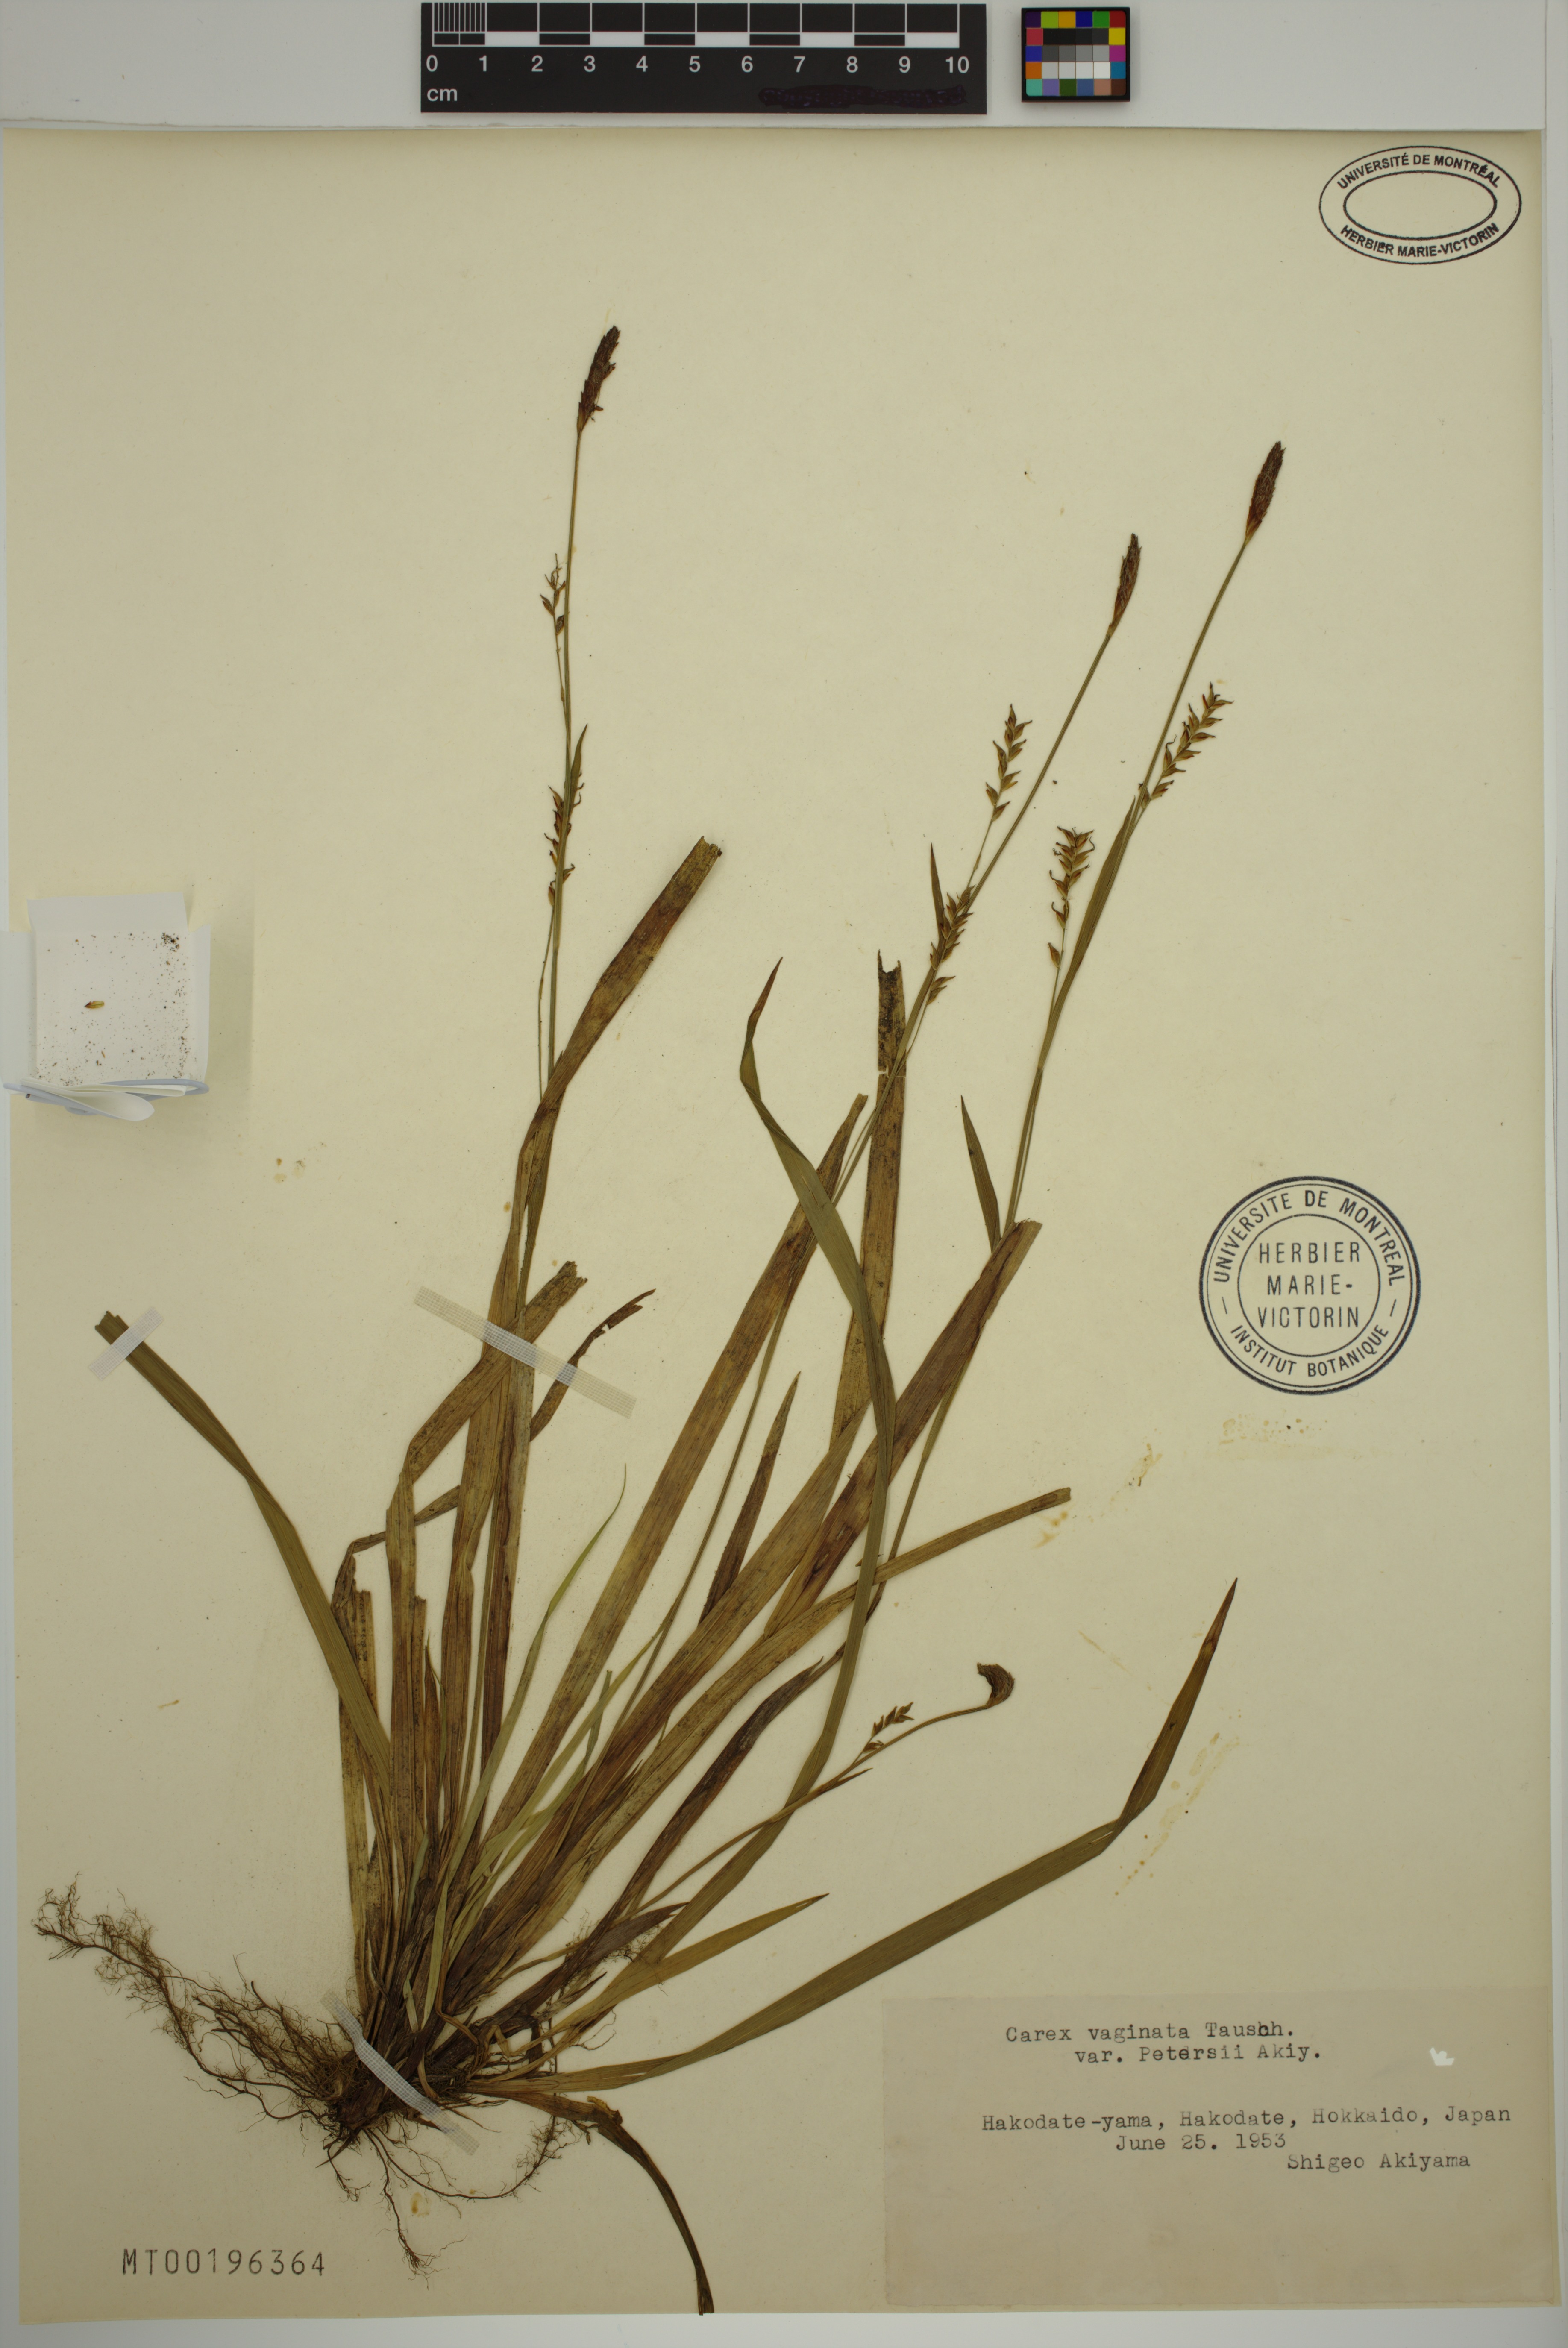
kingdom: Plantae
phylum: Tracheophyta
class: Liliopsida
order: Poales
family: Cyperaceae
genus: Carex
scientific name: Carex vaginata
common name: Sheathed sedge
